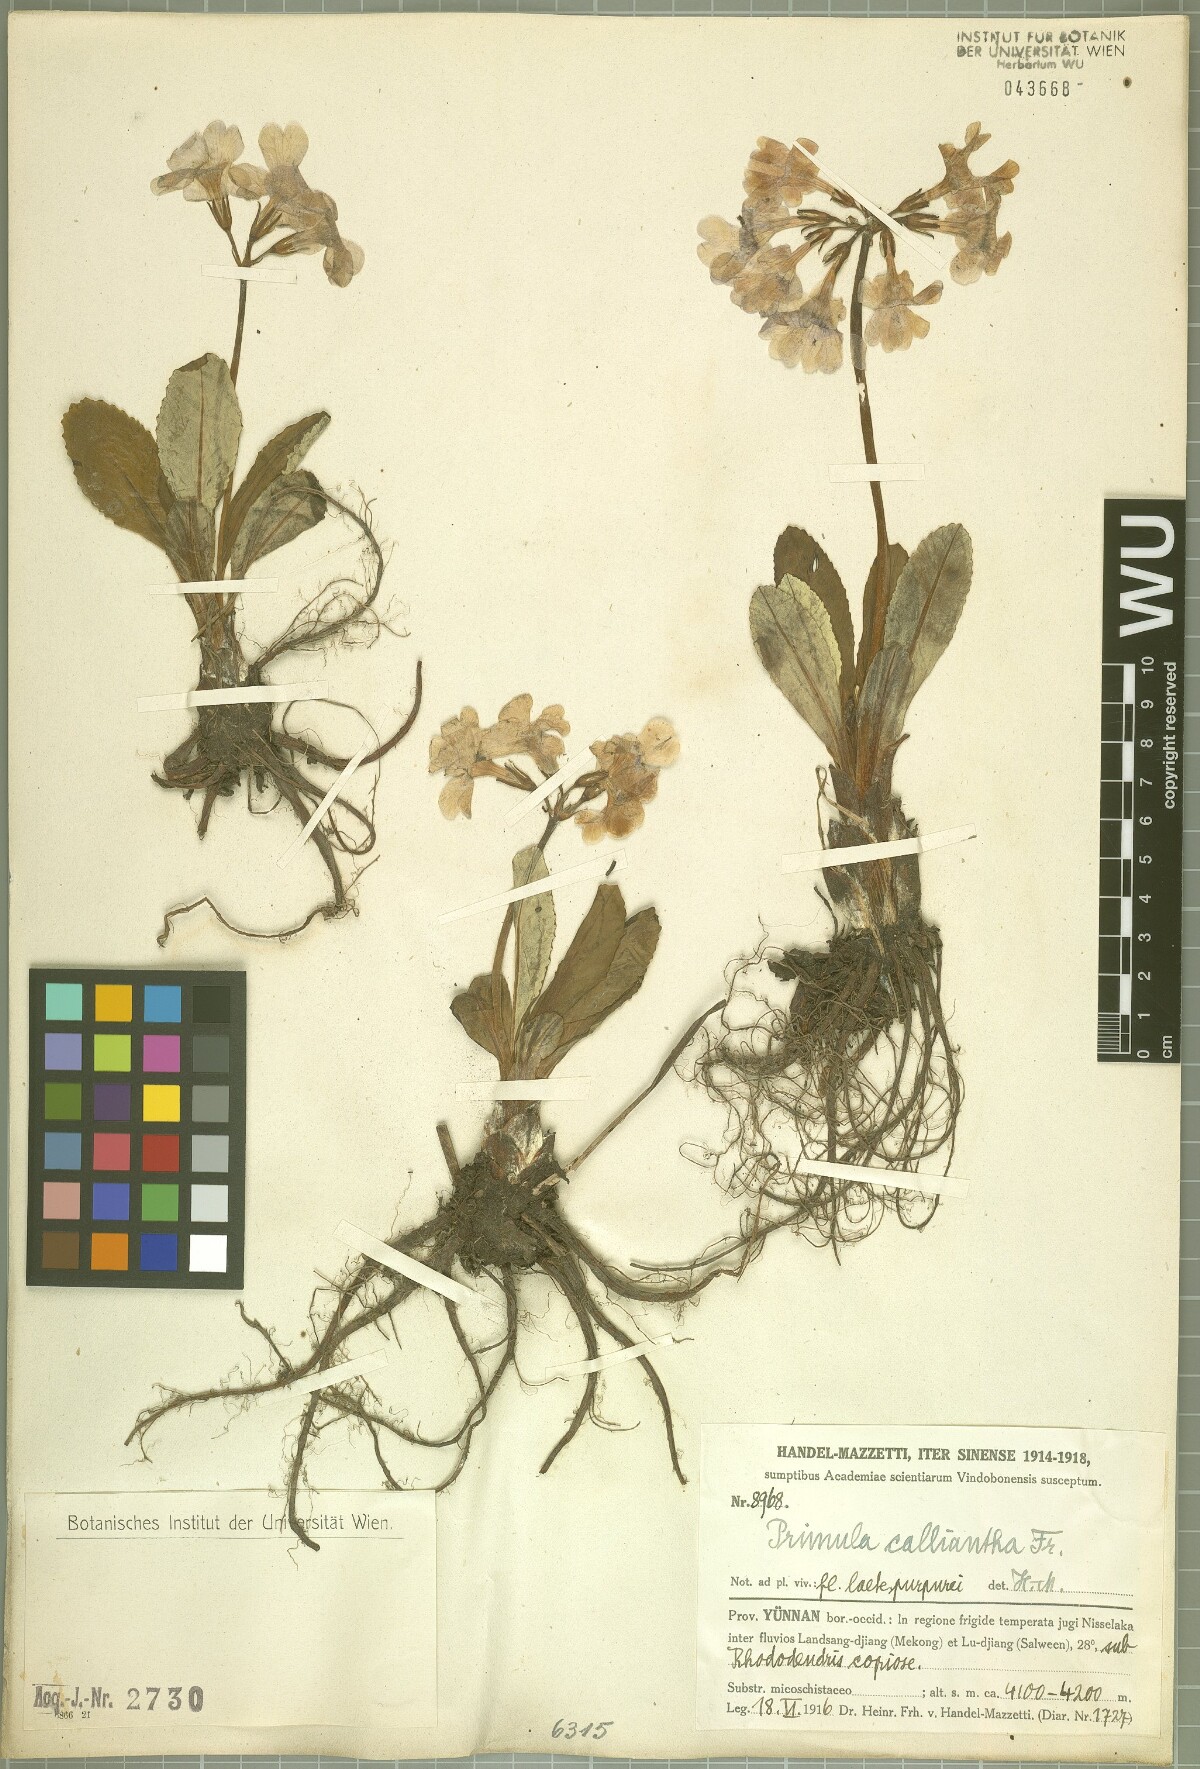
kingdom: Plantae
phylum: Tracheophyta
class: Magnoliopsida
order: Ericales
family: Primulaceae
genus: Primula
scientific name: Primula calliantha
